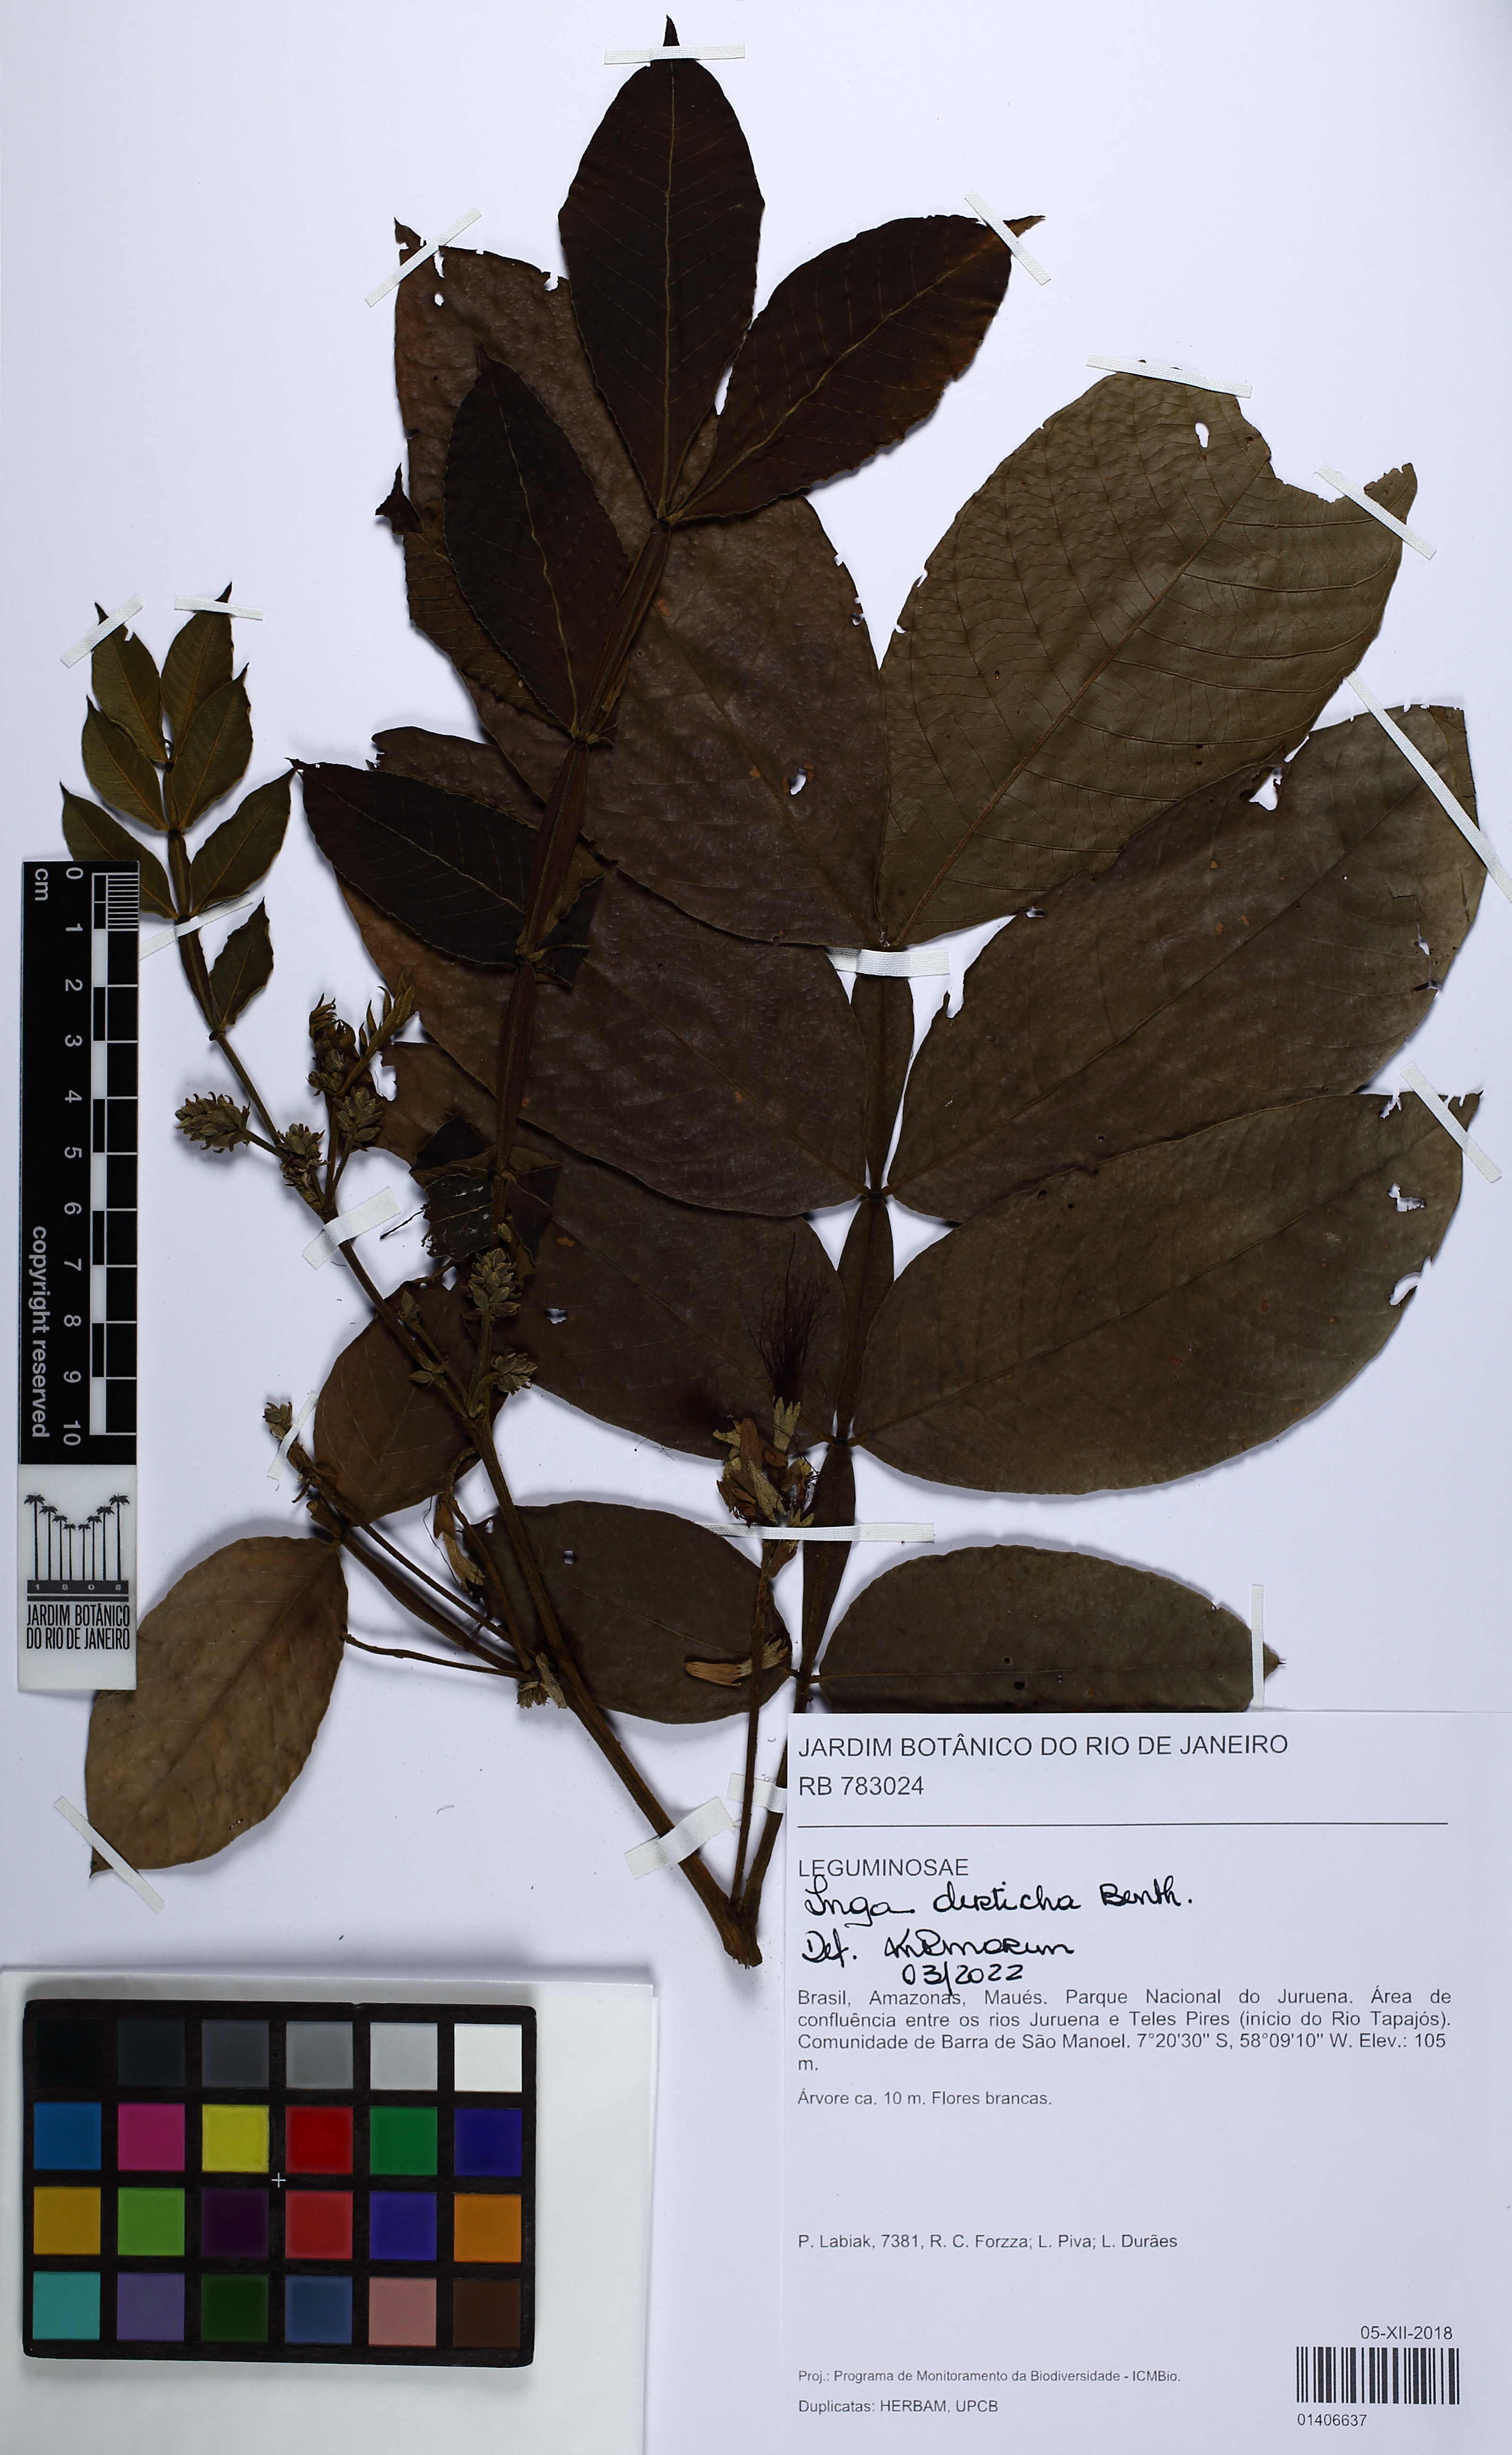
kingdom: Plantae
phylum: Tracheophyta
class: Magnoliopsida
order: Fabales
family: Fabaceae
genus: Inga
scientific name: Inga disticha
